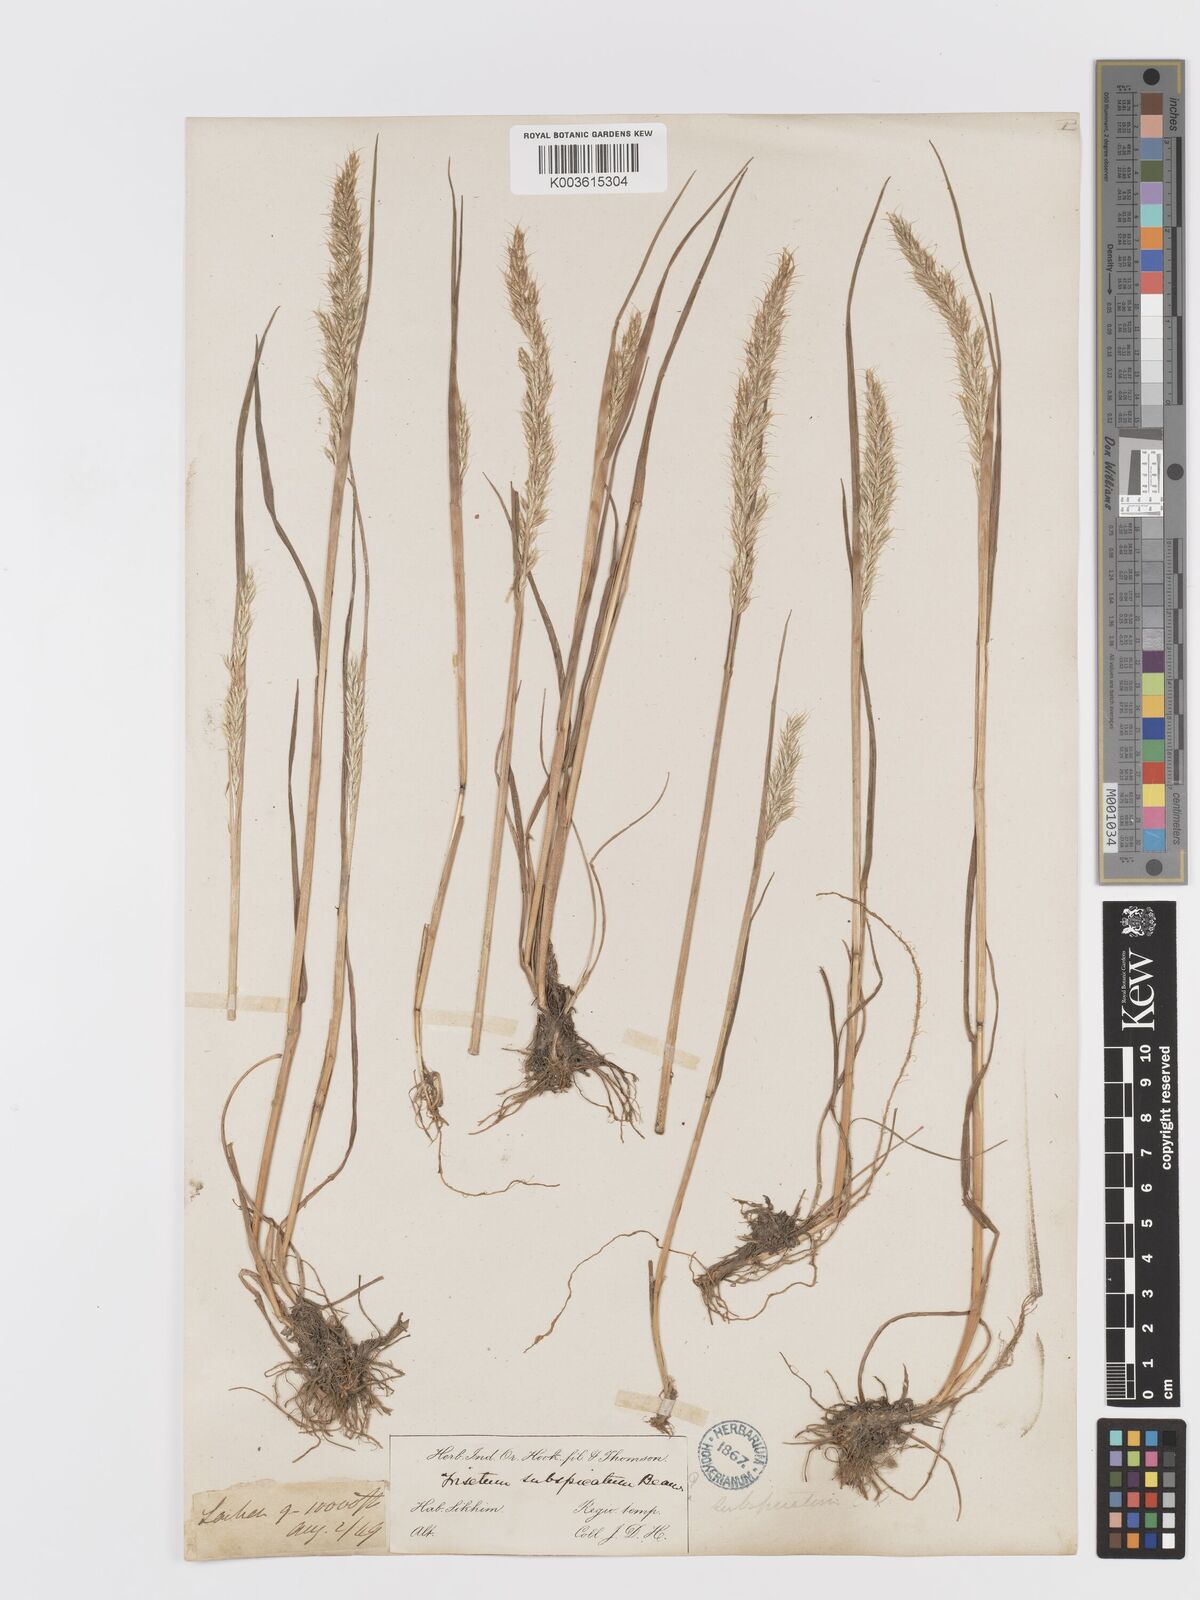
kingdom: Plantae
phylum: Tracheophyta
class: Liliopsida
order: Poales
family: Poaceae
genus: Koeleria
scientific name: Koeleria spicata
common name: Mountain trisetum
